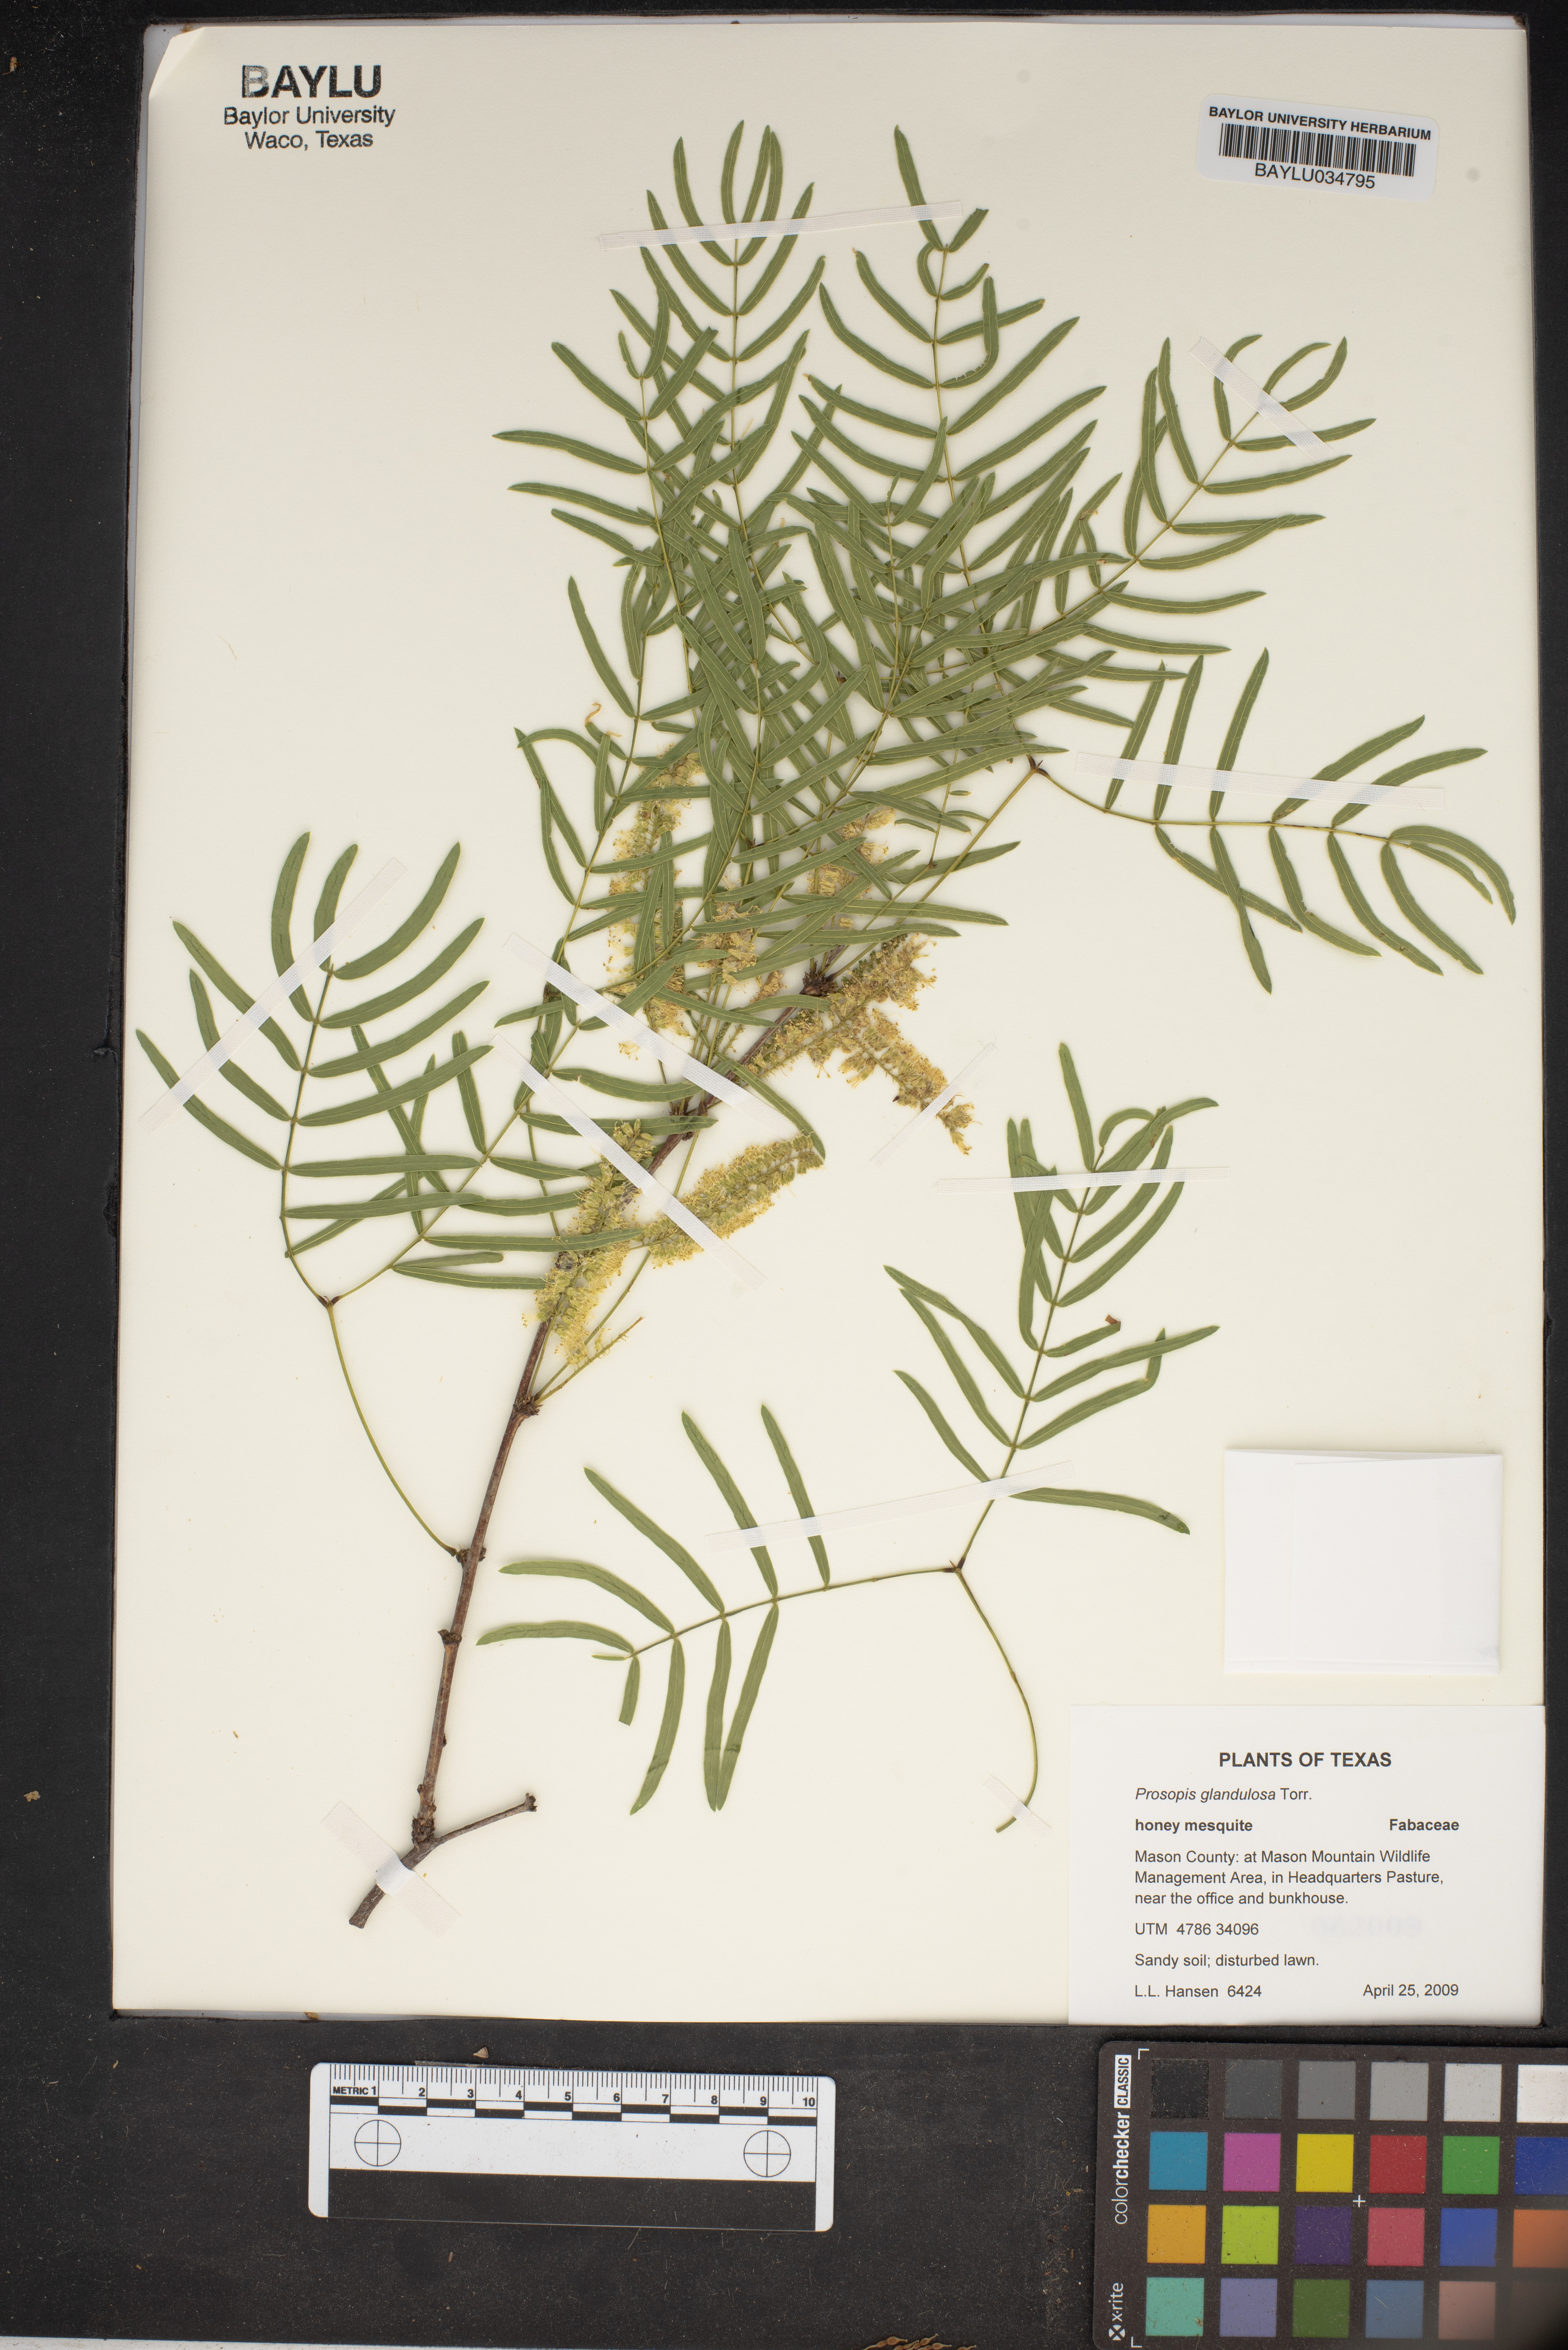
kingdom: Plantae
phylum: Tracheophyta
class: Magnoliopsida
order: Fabales
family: Fabaceae
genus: Prosopis
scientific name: Prosopis glandulosa
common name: Honey mesquite
